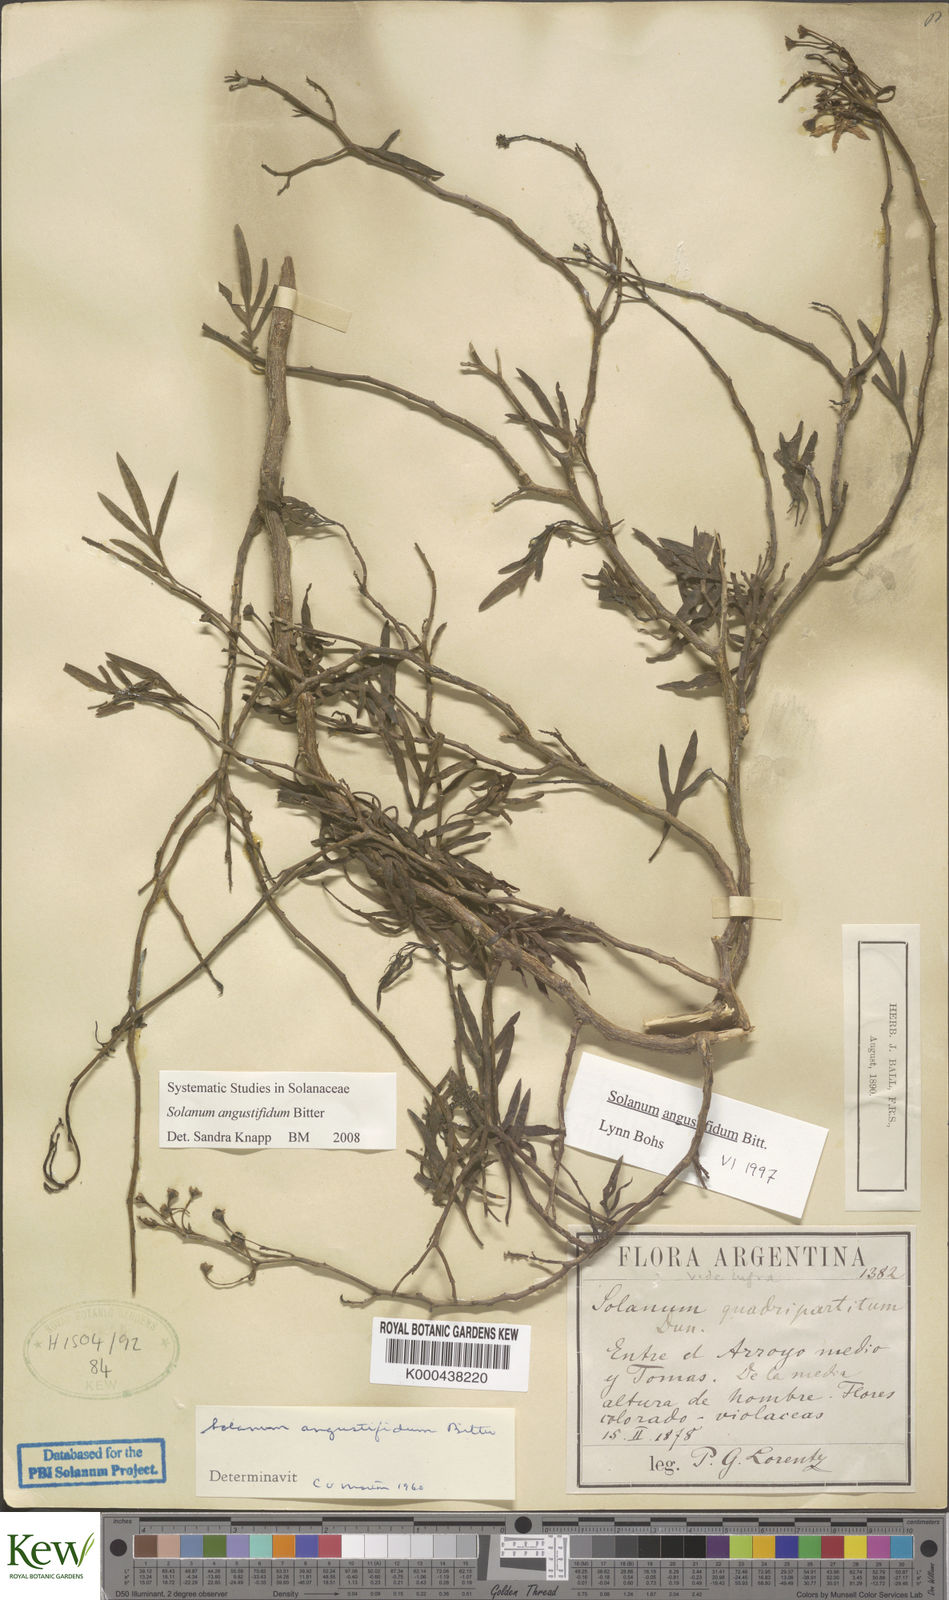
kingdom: Plantae
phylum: Tracheophyta
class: Magnoliopsida
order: Solanales
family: Solanaceae
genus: Solanum
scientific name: Solanum angustifidum
